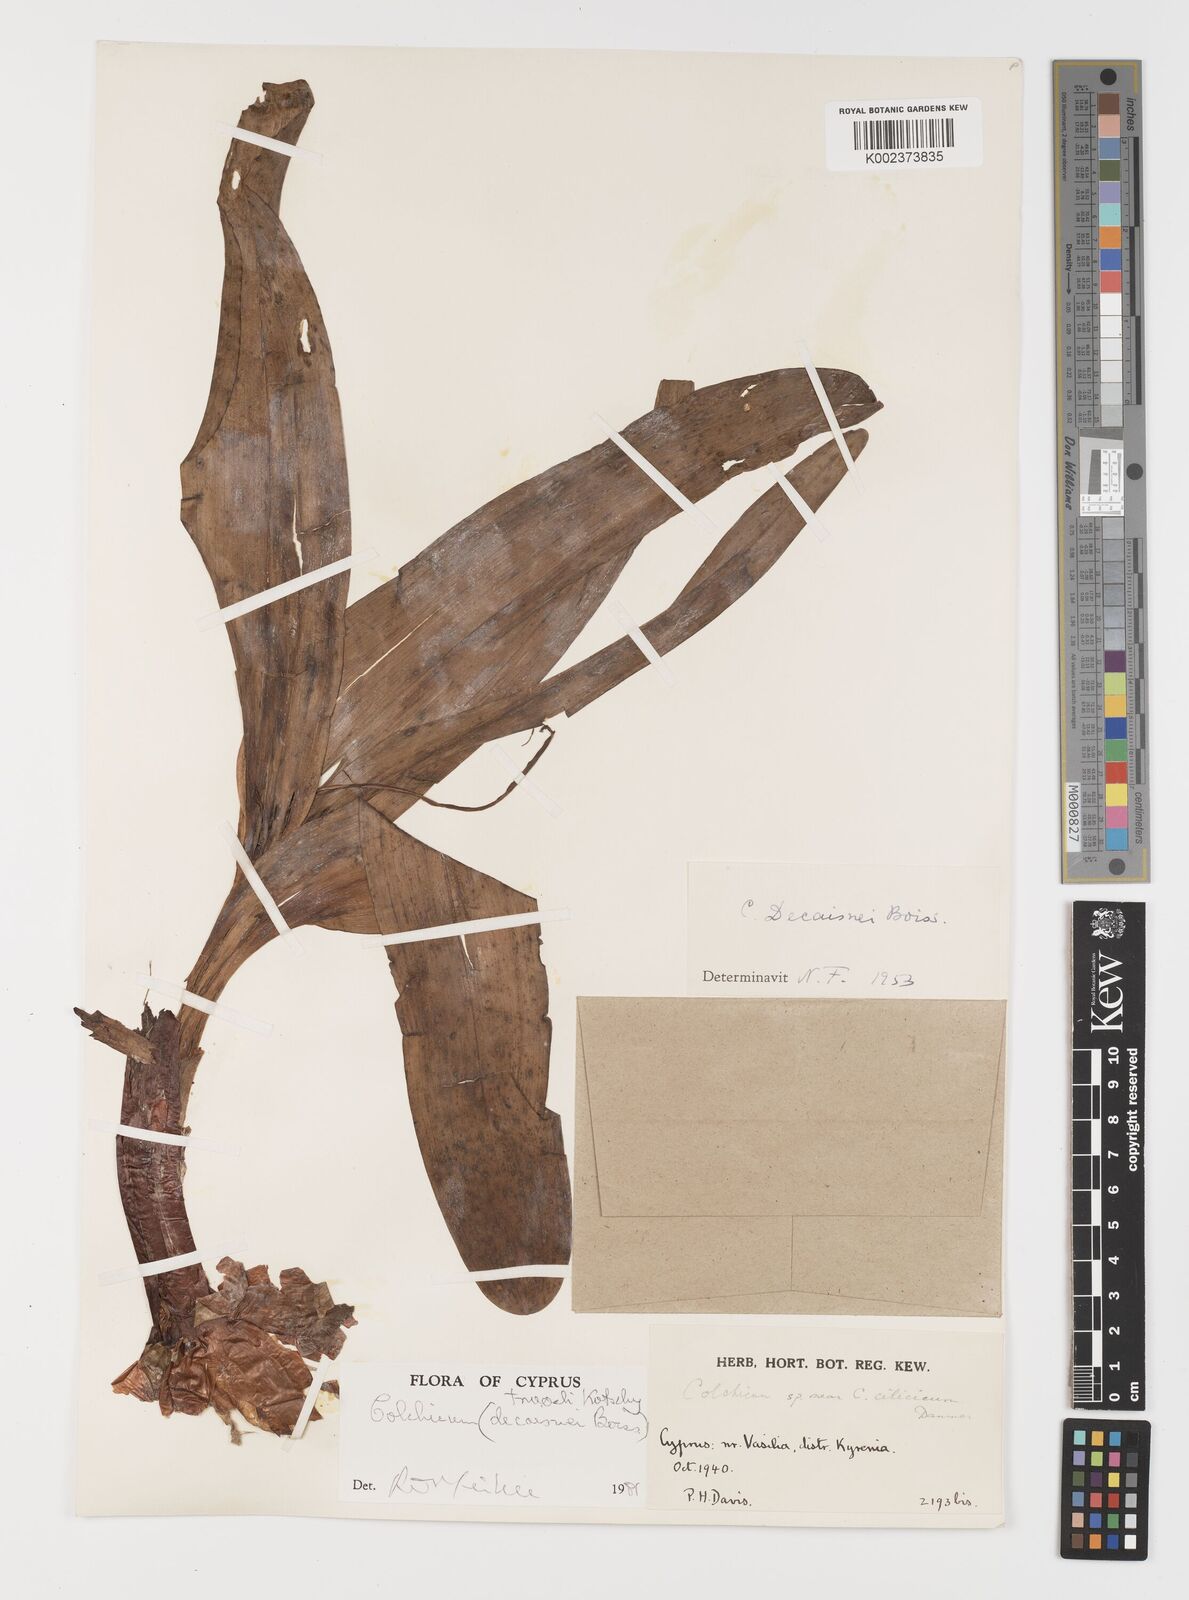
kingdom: Plantae
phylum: Tracheophyta
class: Liliopsida
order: Liliales
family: Colchicaceae
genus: Colchicum
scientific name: Colchicum troodi
